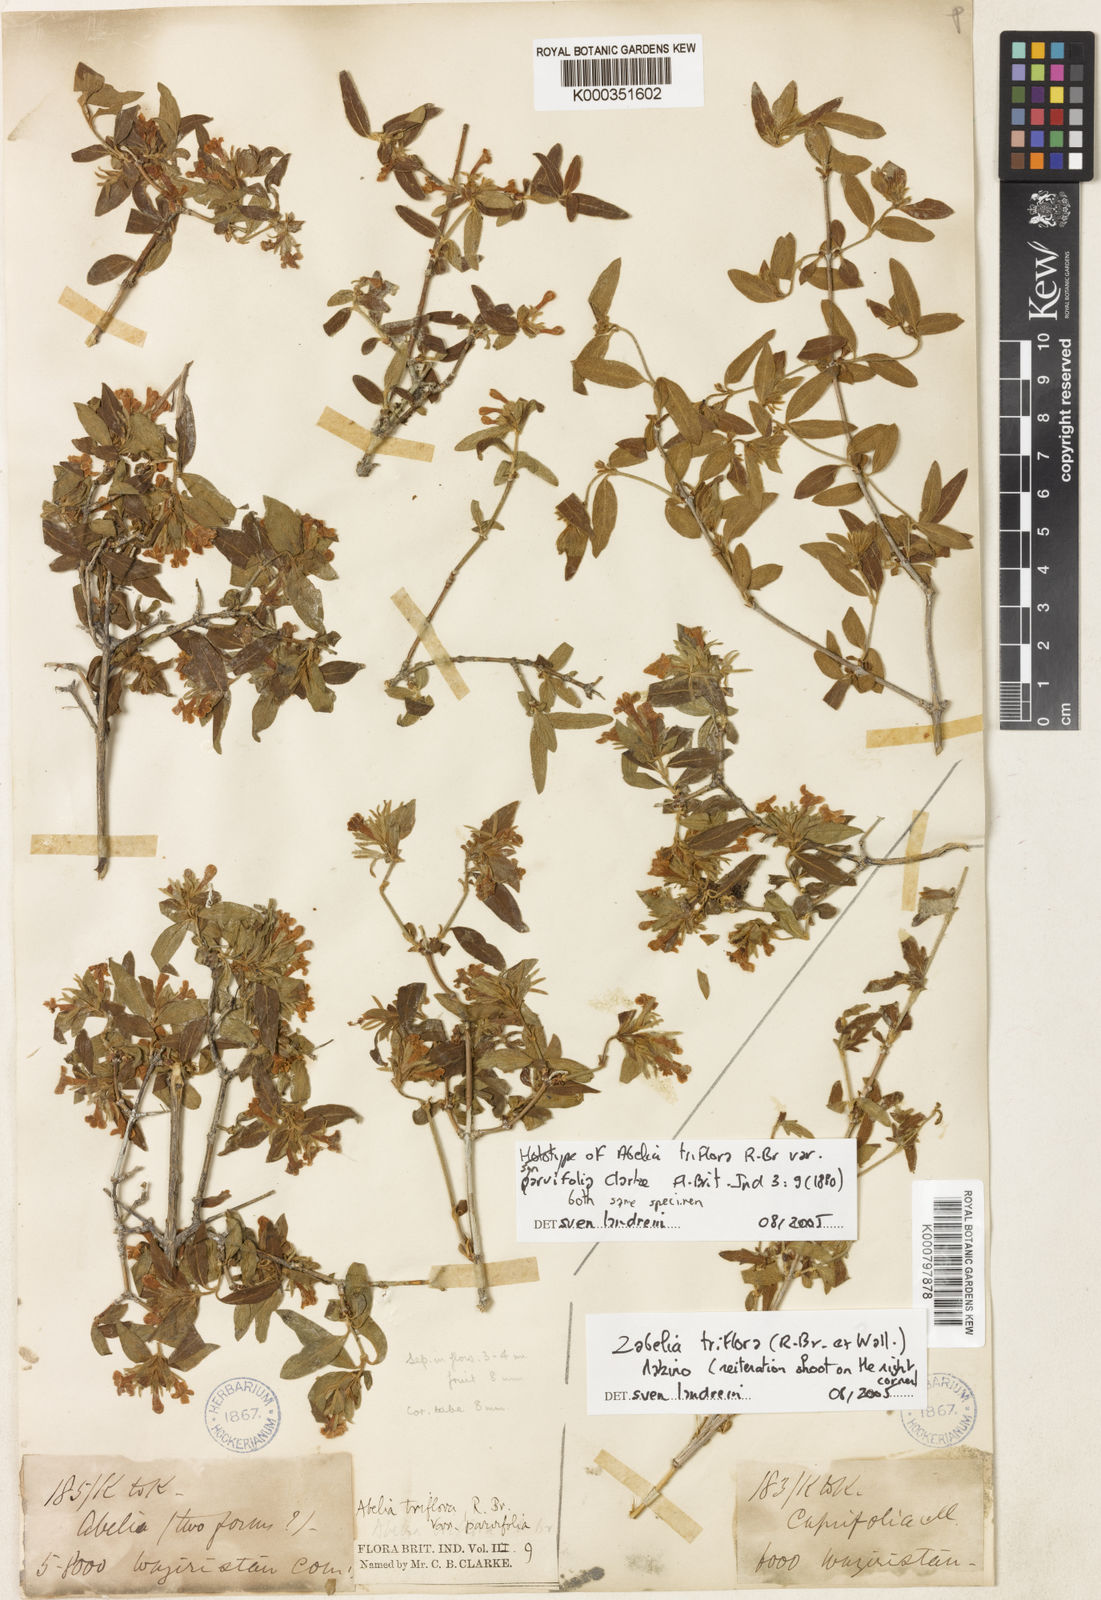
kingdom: Plantae
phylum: Tracheophyta
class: Magnoliopsida
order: Dipsacales
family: Caprifoliaceae
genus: Zabelia
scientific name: Zabelia triflora
